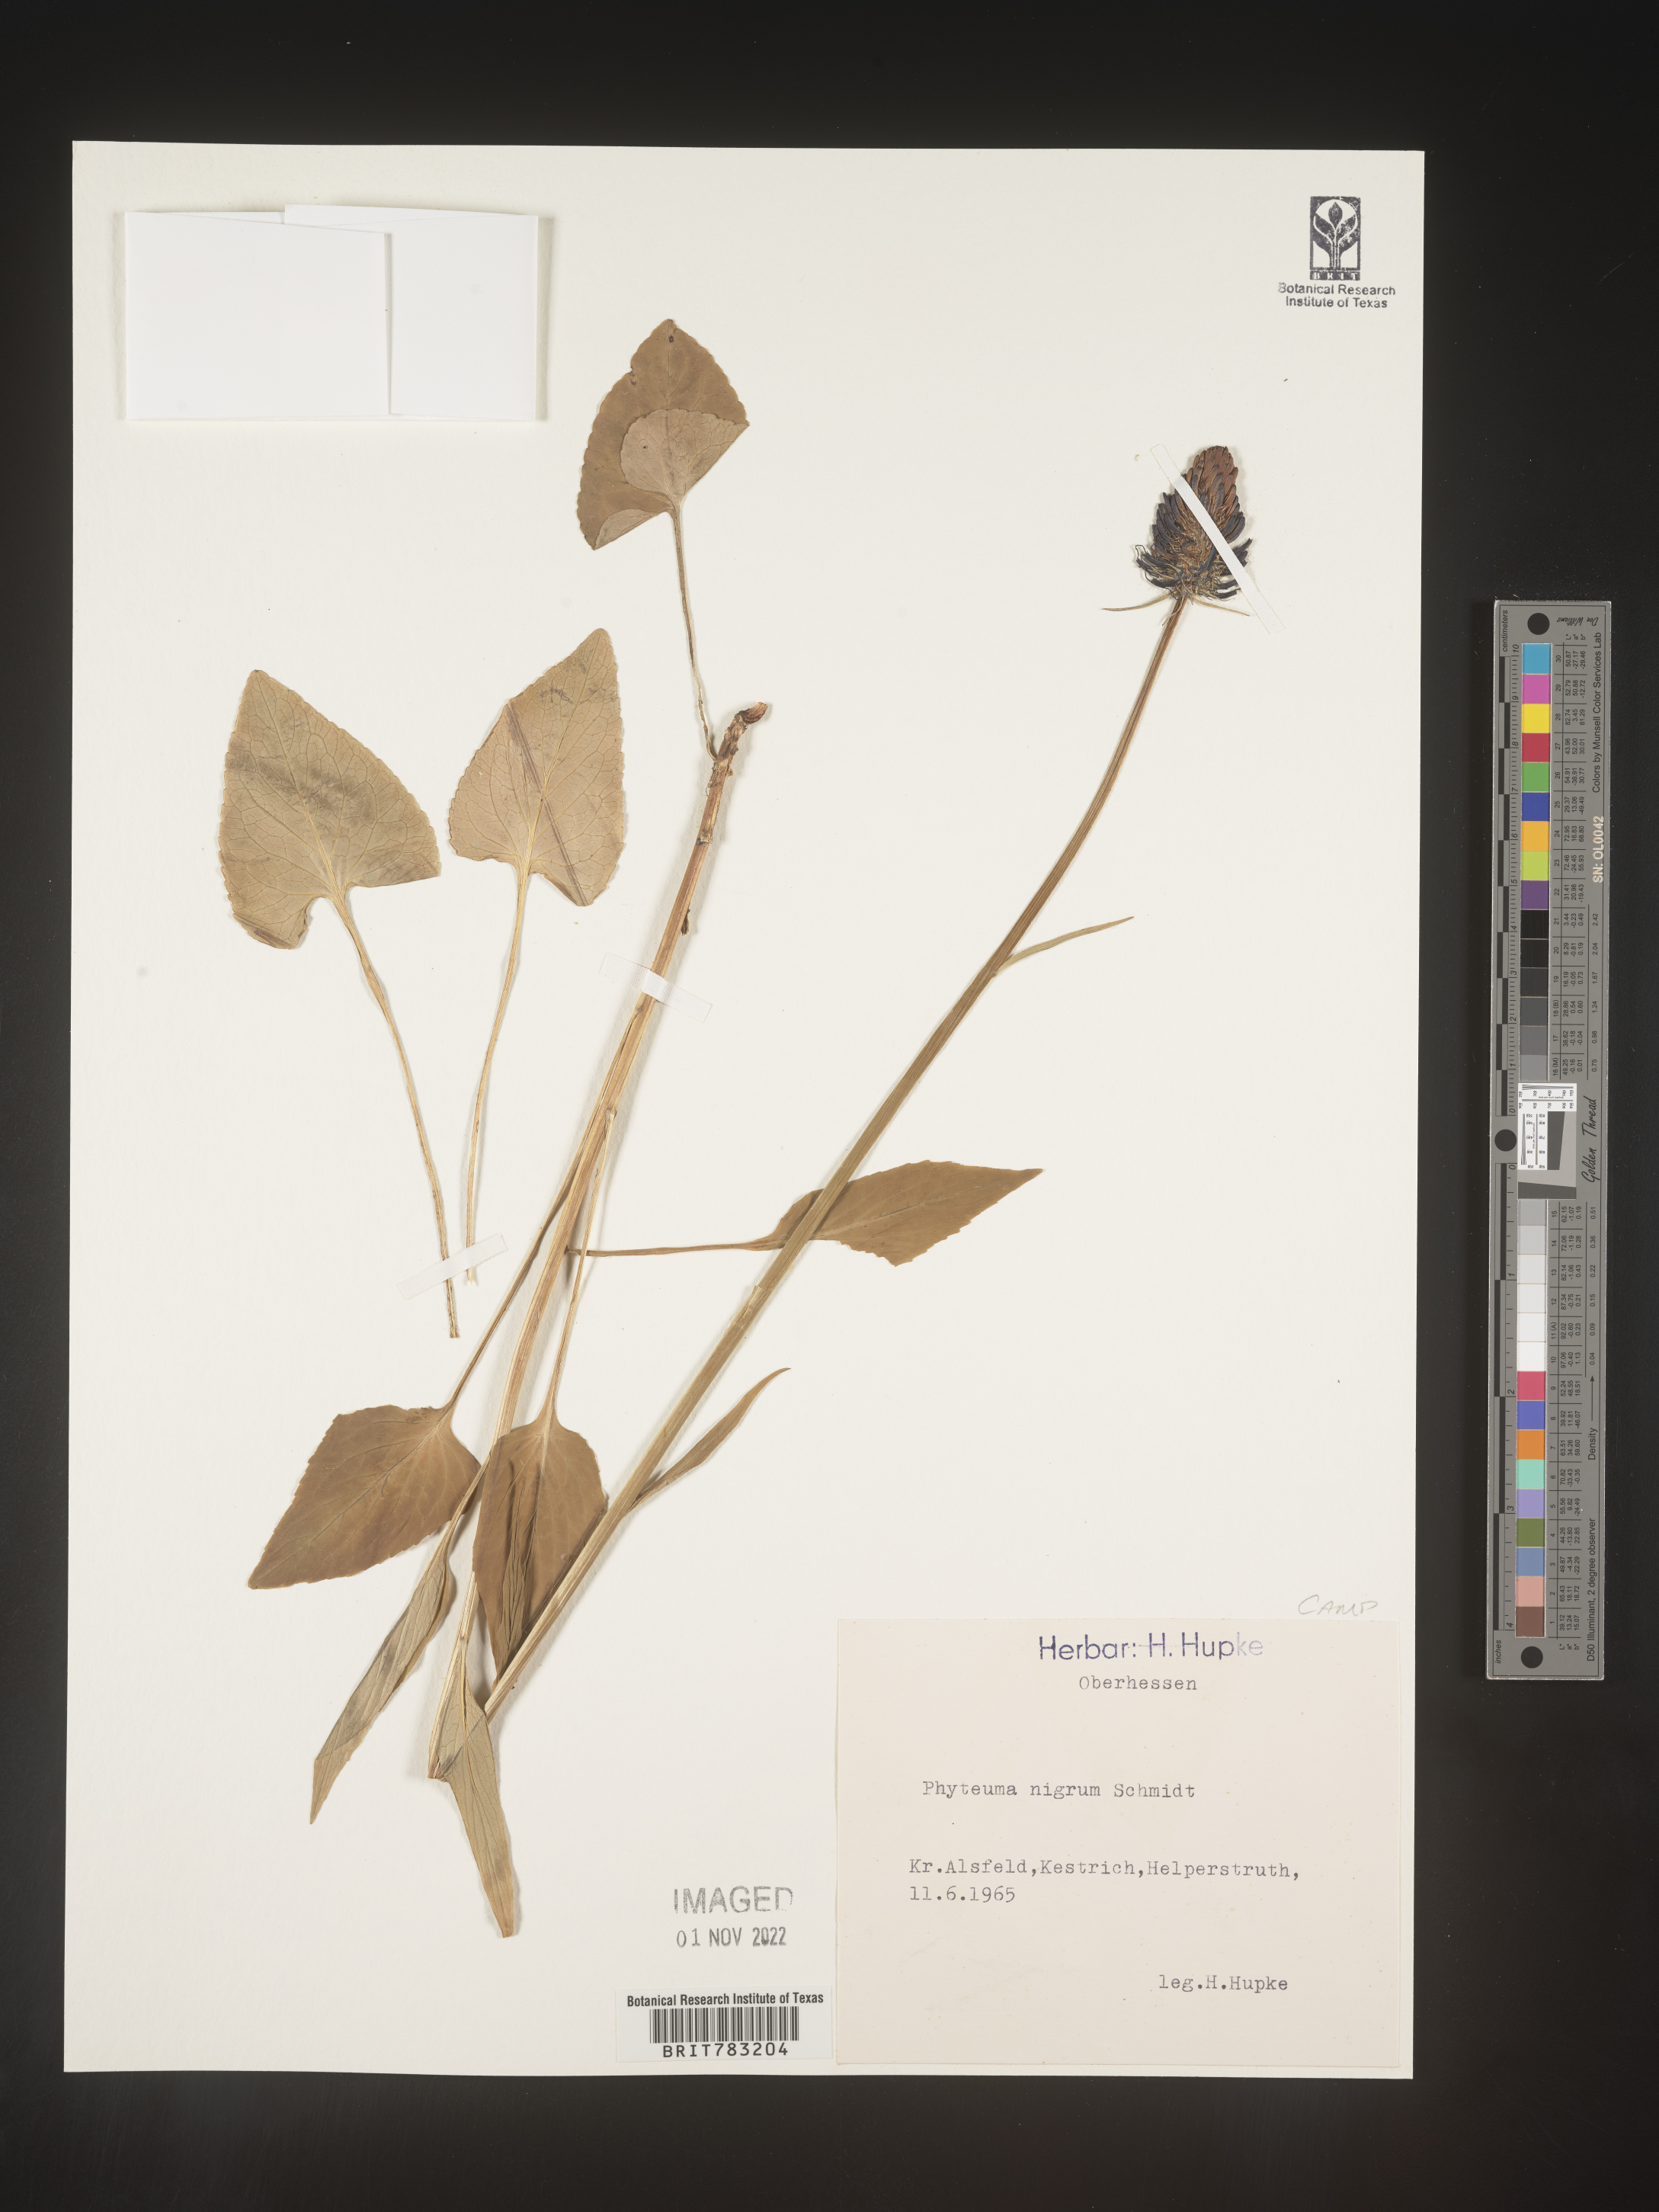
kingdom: Plantae
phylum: Tracheophyta
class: Magnoliopsida
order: Asterales
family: Campanulaceae
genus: Phyteuma
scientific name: Phyteuma
